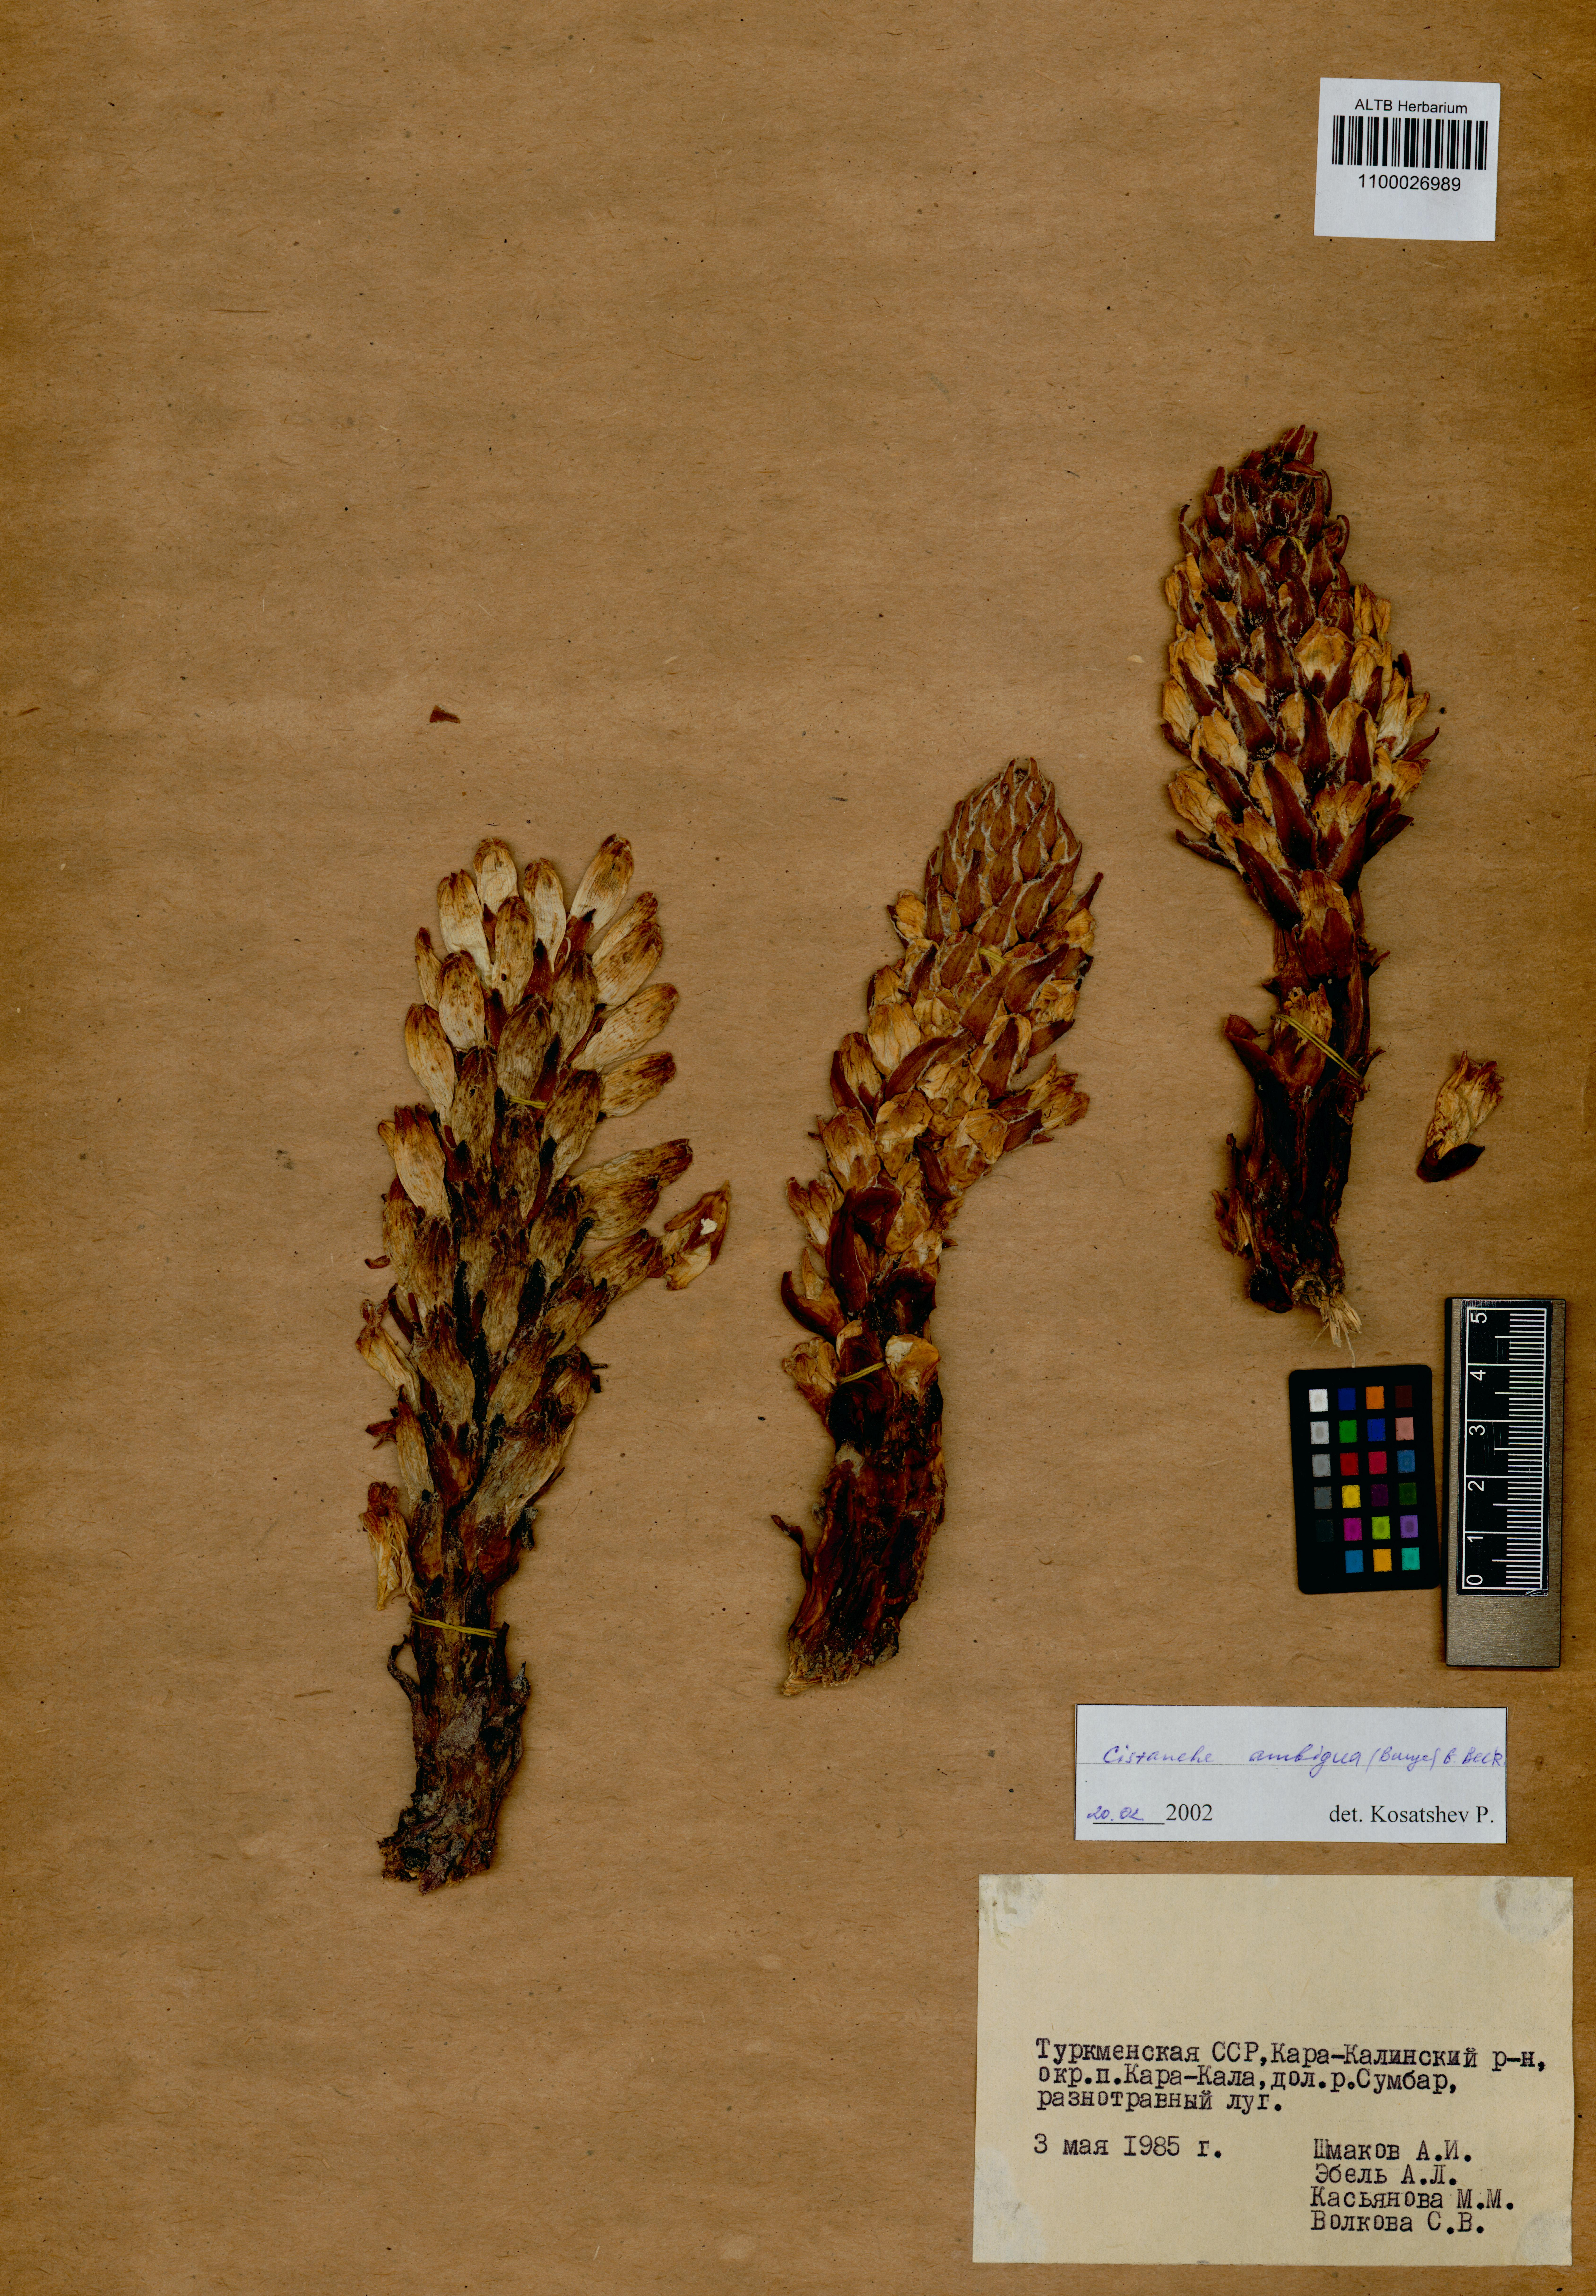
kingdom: Plantae
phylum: Tracheophyta
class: Magnoliopsida
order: Lamiales
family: Orobanchaceae
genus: Cistanche
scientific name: Cistanche ambigua
